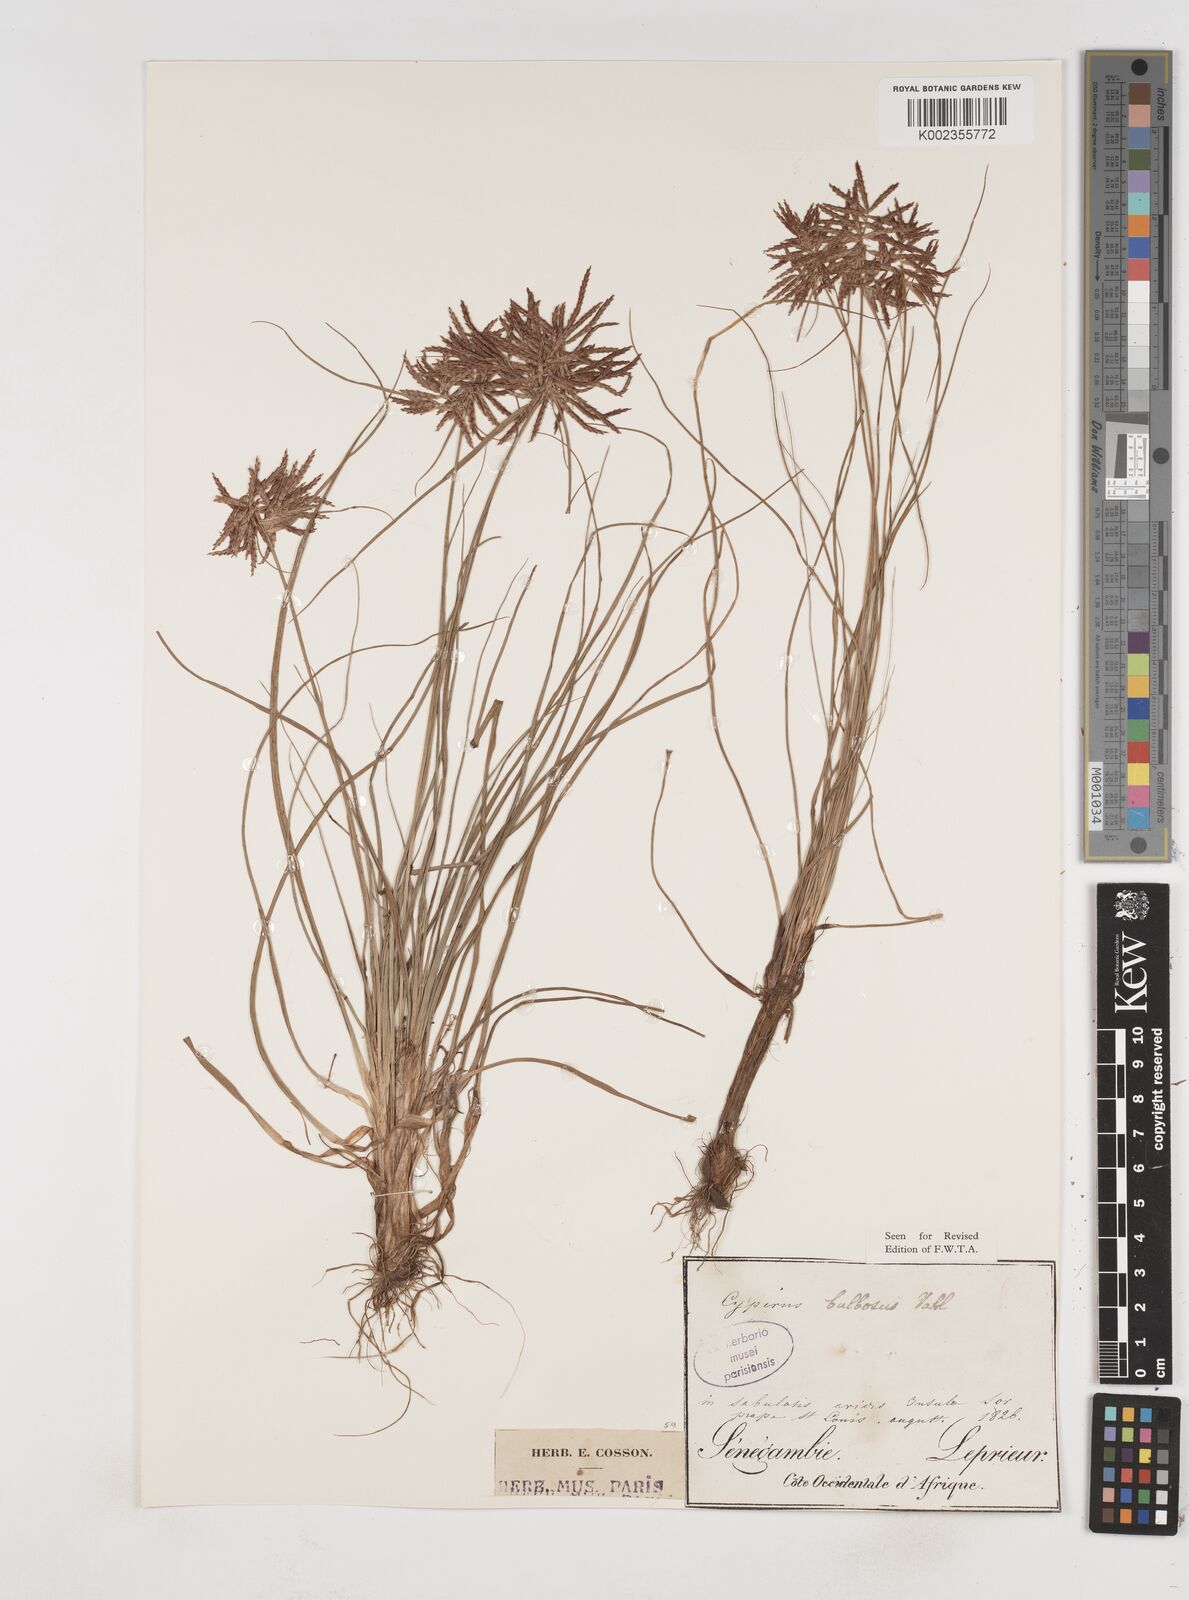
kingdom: Plantae
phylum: Tracheophyta
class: Liliopsida
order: Poales
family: Cyperaceae
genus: Cyperus
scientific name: Cyperus bulbosus
